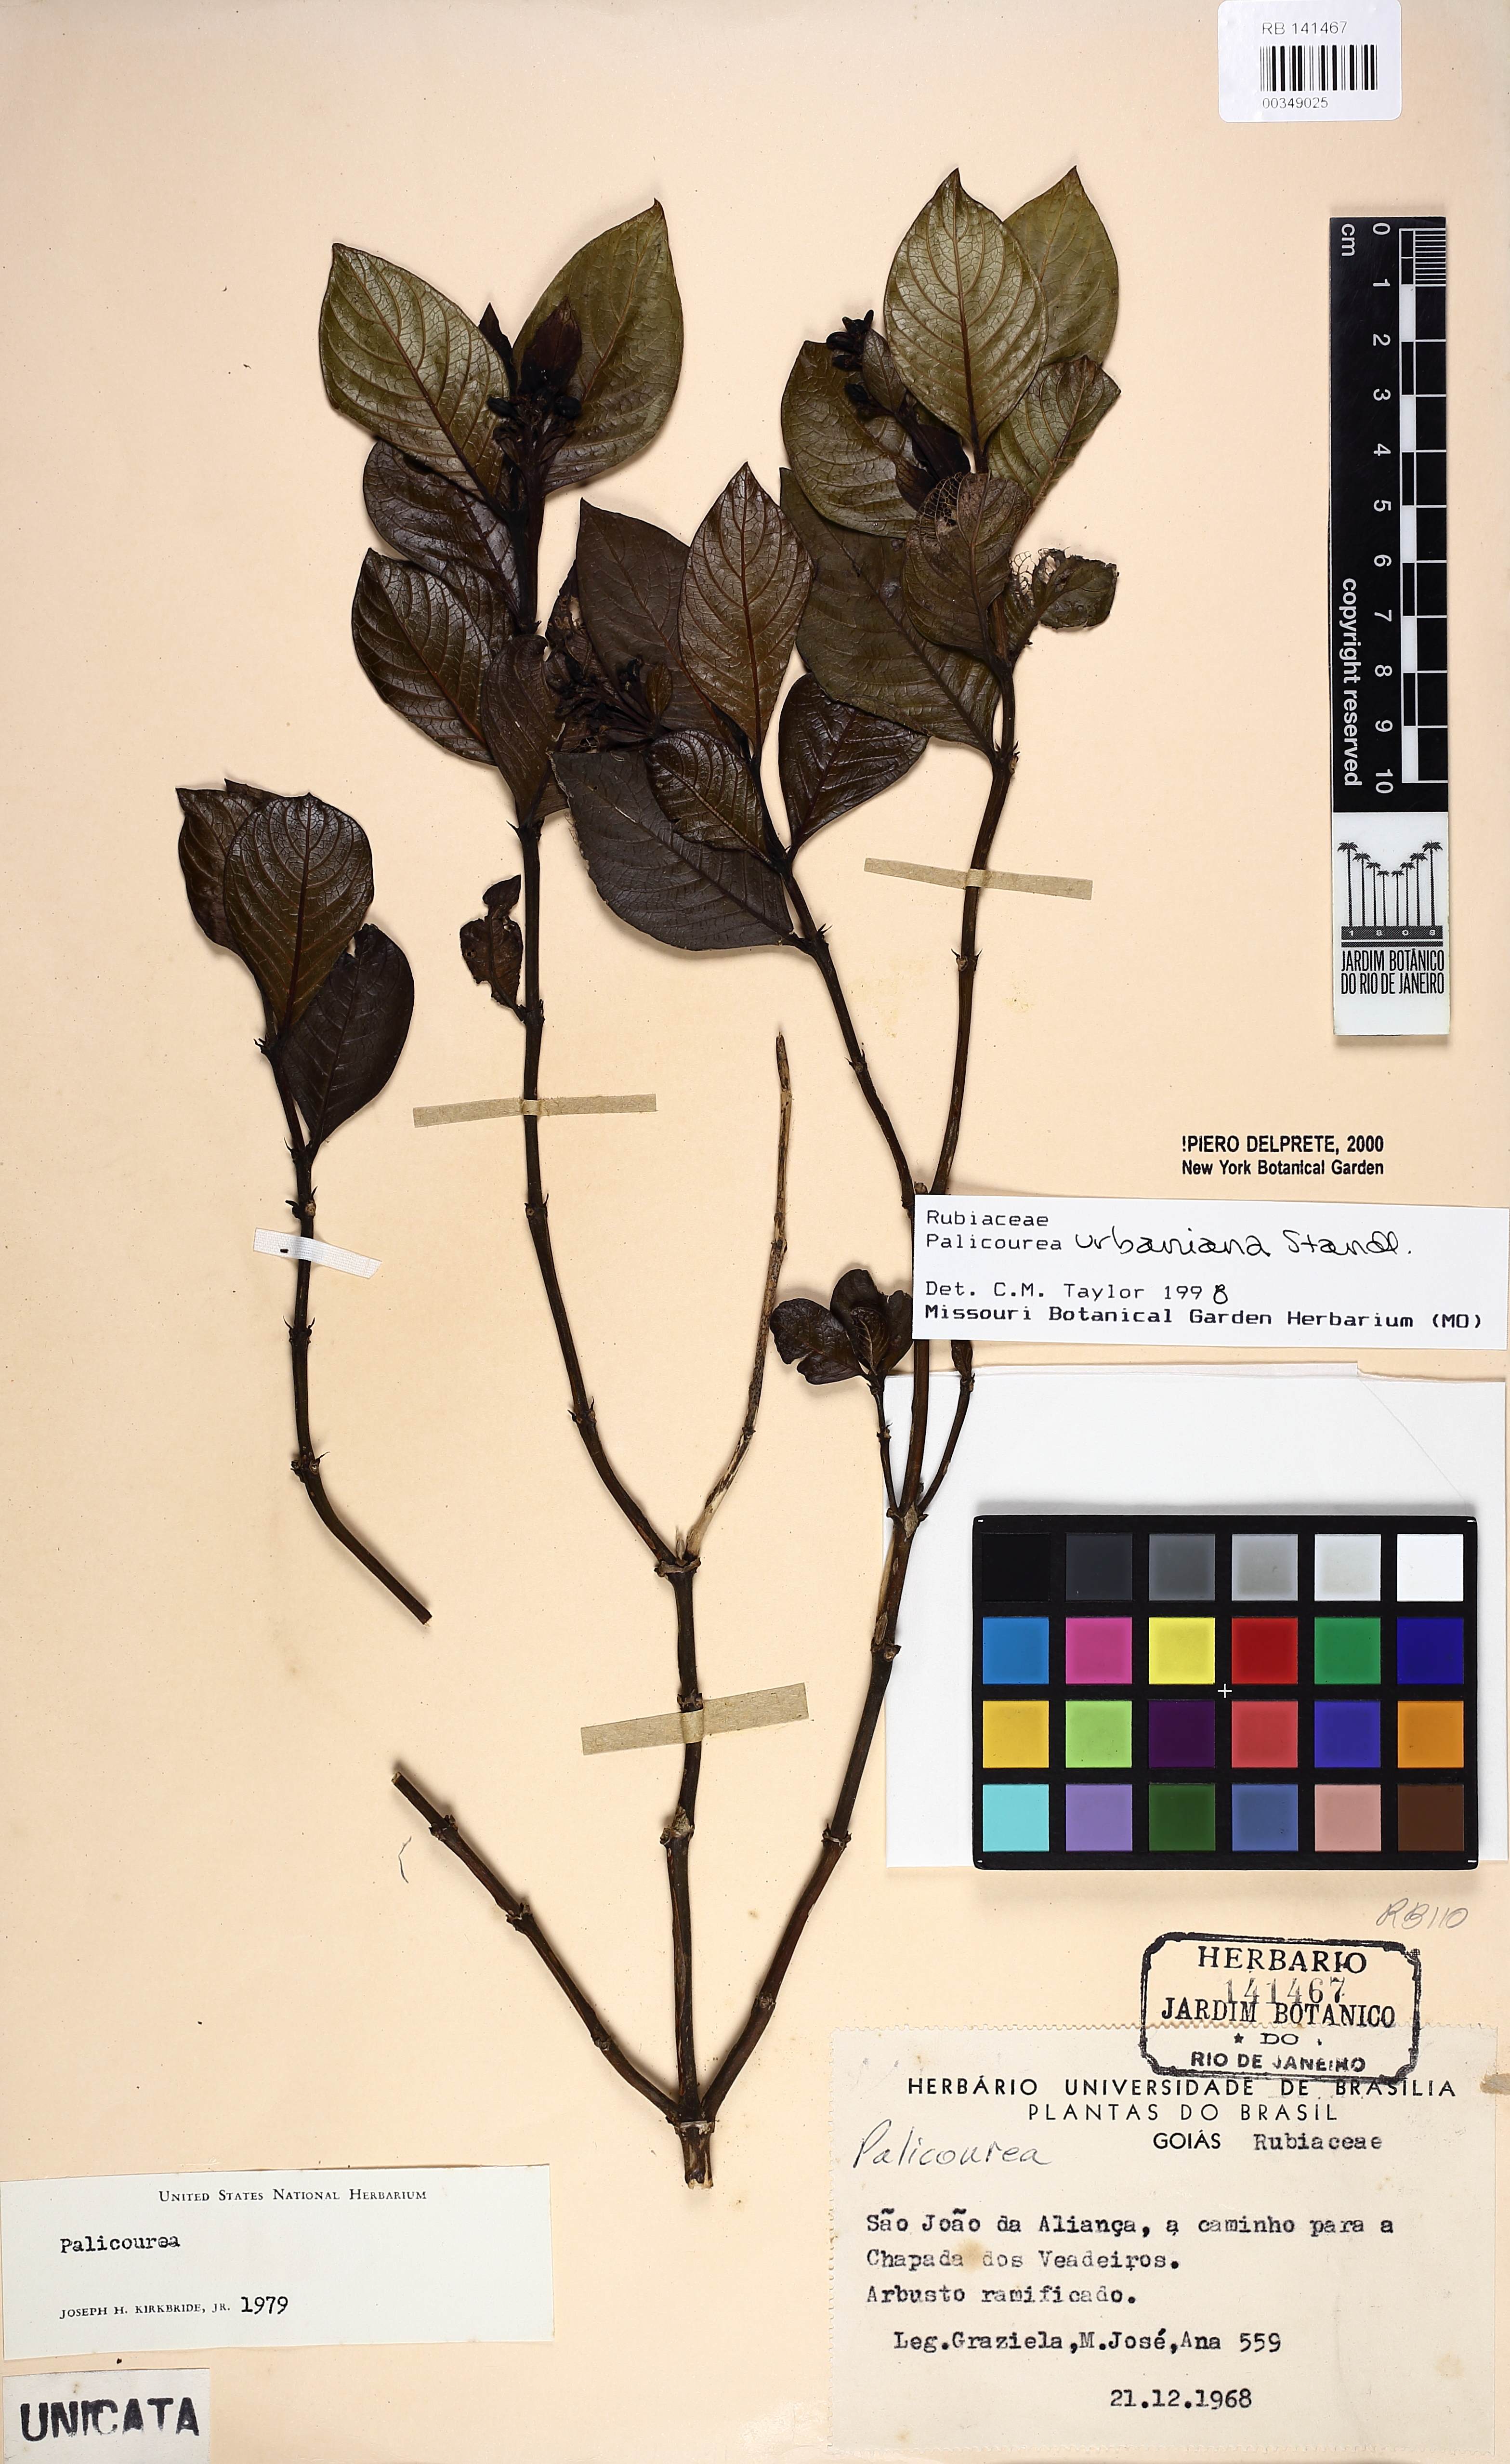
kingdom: Plantae
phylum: Tracheophyta
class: Magnoliopsida
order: Gentianales
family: Rubiaceae
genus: Palicourea
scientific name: Palicourea urbaniana
